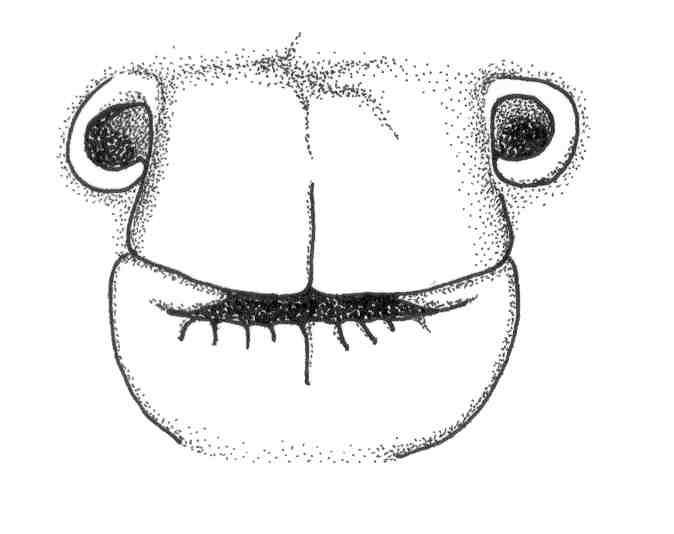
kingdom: Animalia
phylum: Chordata
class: Elasmobranchii
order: Torpediniformes
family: Narkidae
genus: Temera
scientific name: Temera hardwickii
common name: Finless sleeper ray
